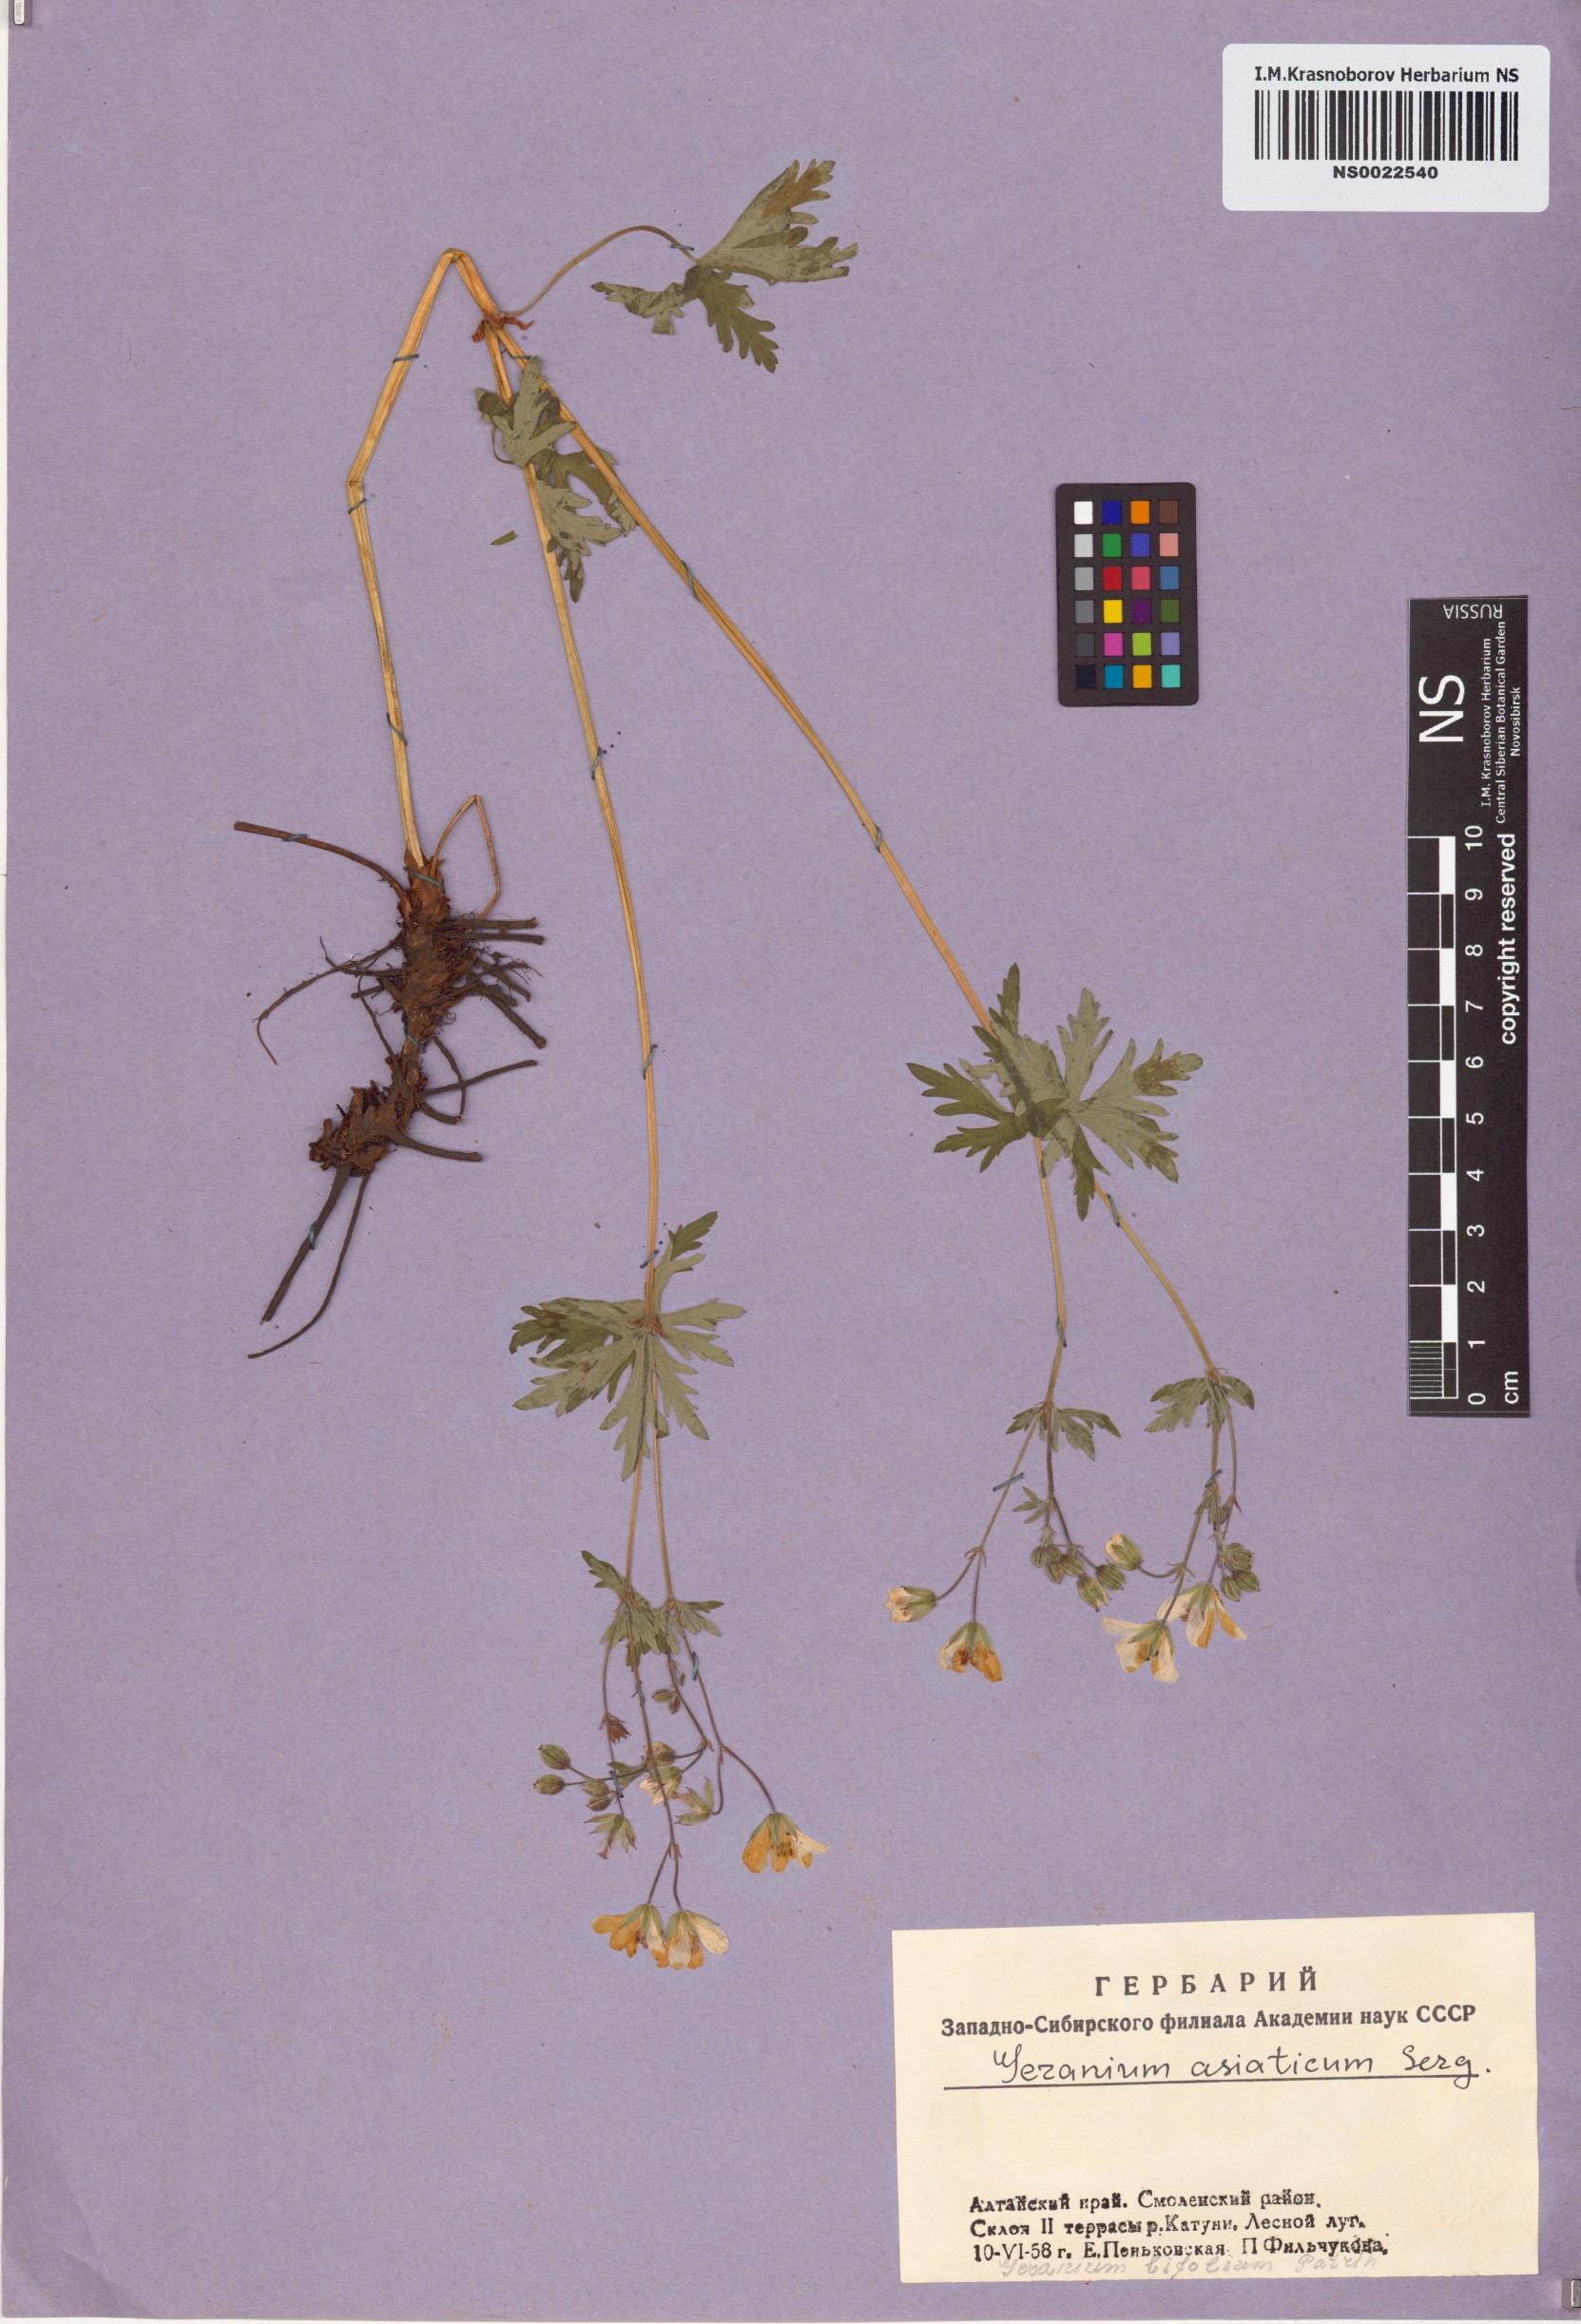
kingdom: Plantae
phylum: Tracheophyta
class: Magnoliopsida
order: Geraniales
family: Geraniaceae
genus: Geranium
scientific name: Geranium pseudosibiricum
